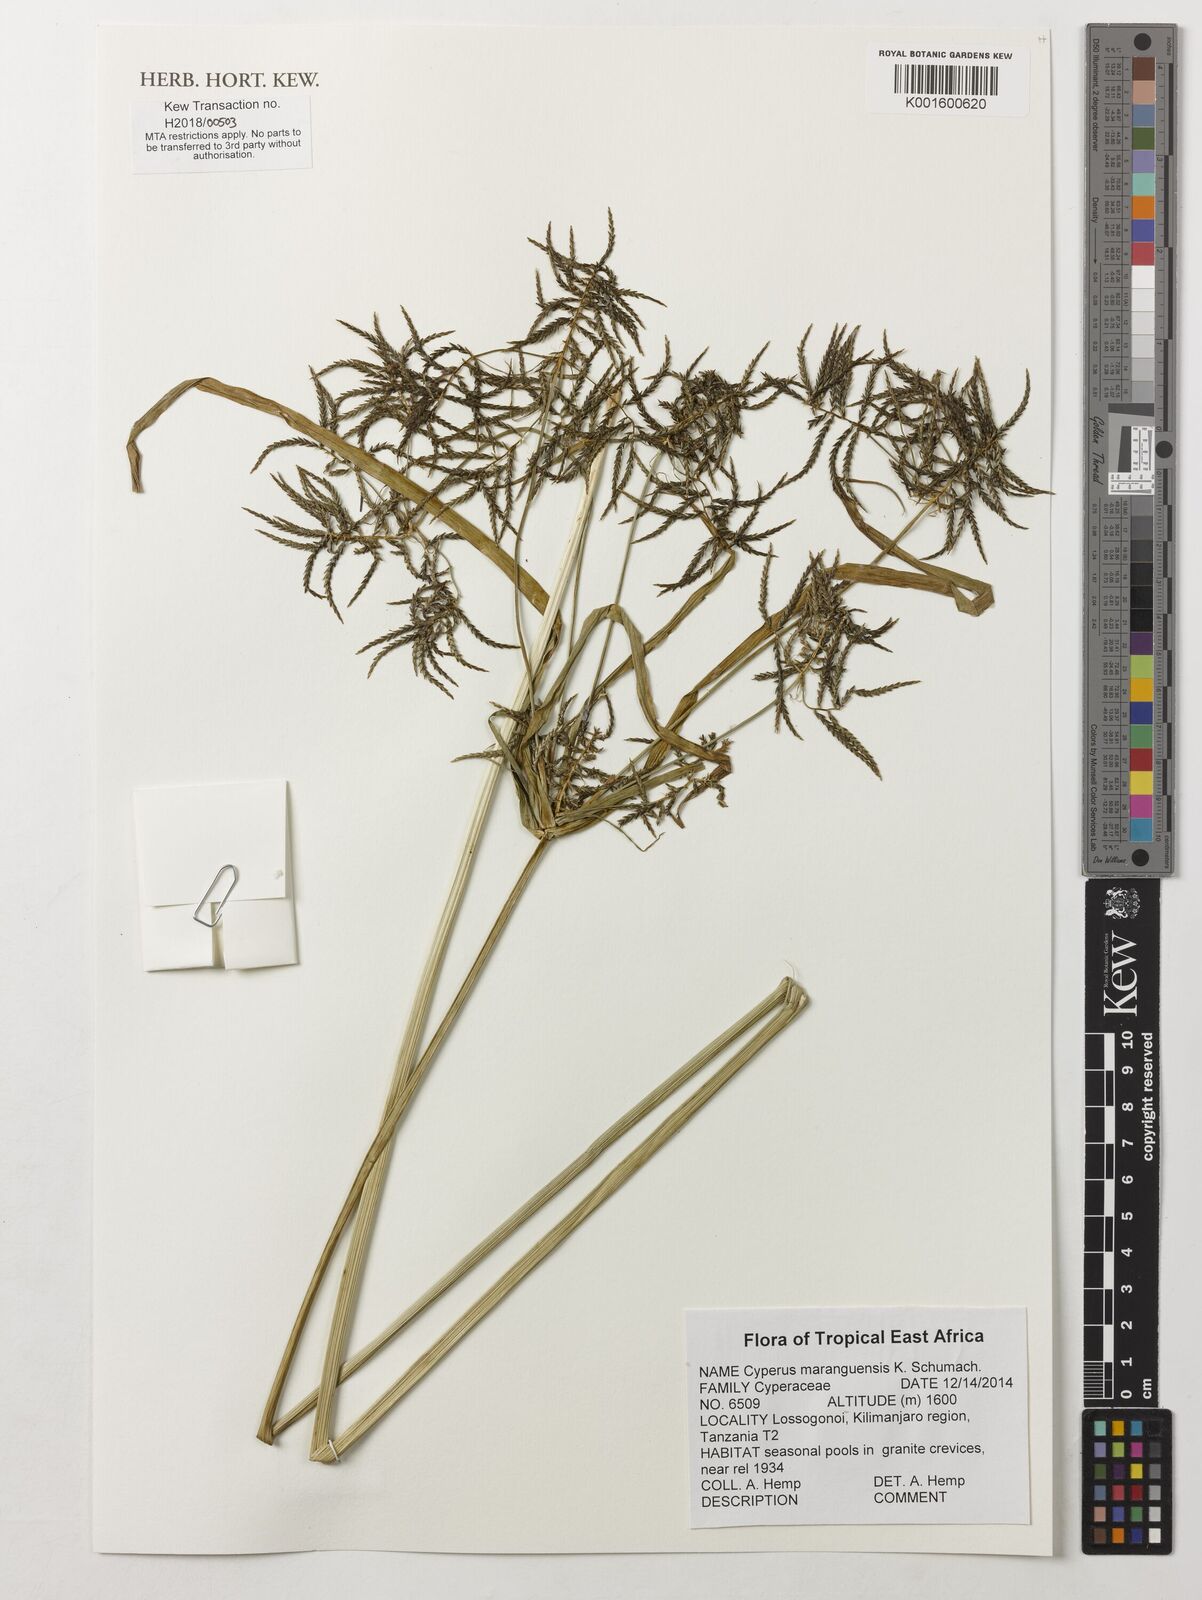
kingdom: Plantae
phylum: Tracheophyta
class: Liliopsida
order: Poales
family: Cyperaceae
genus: Cyperus
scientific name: Cyperus maranguensis
